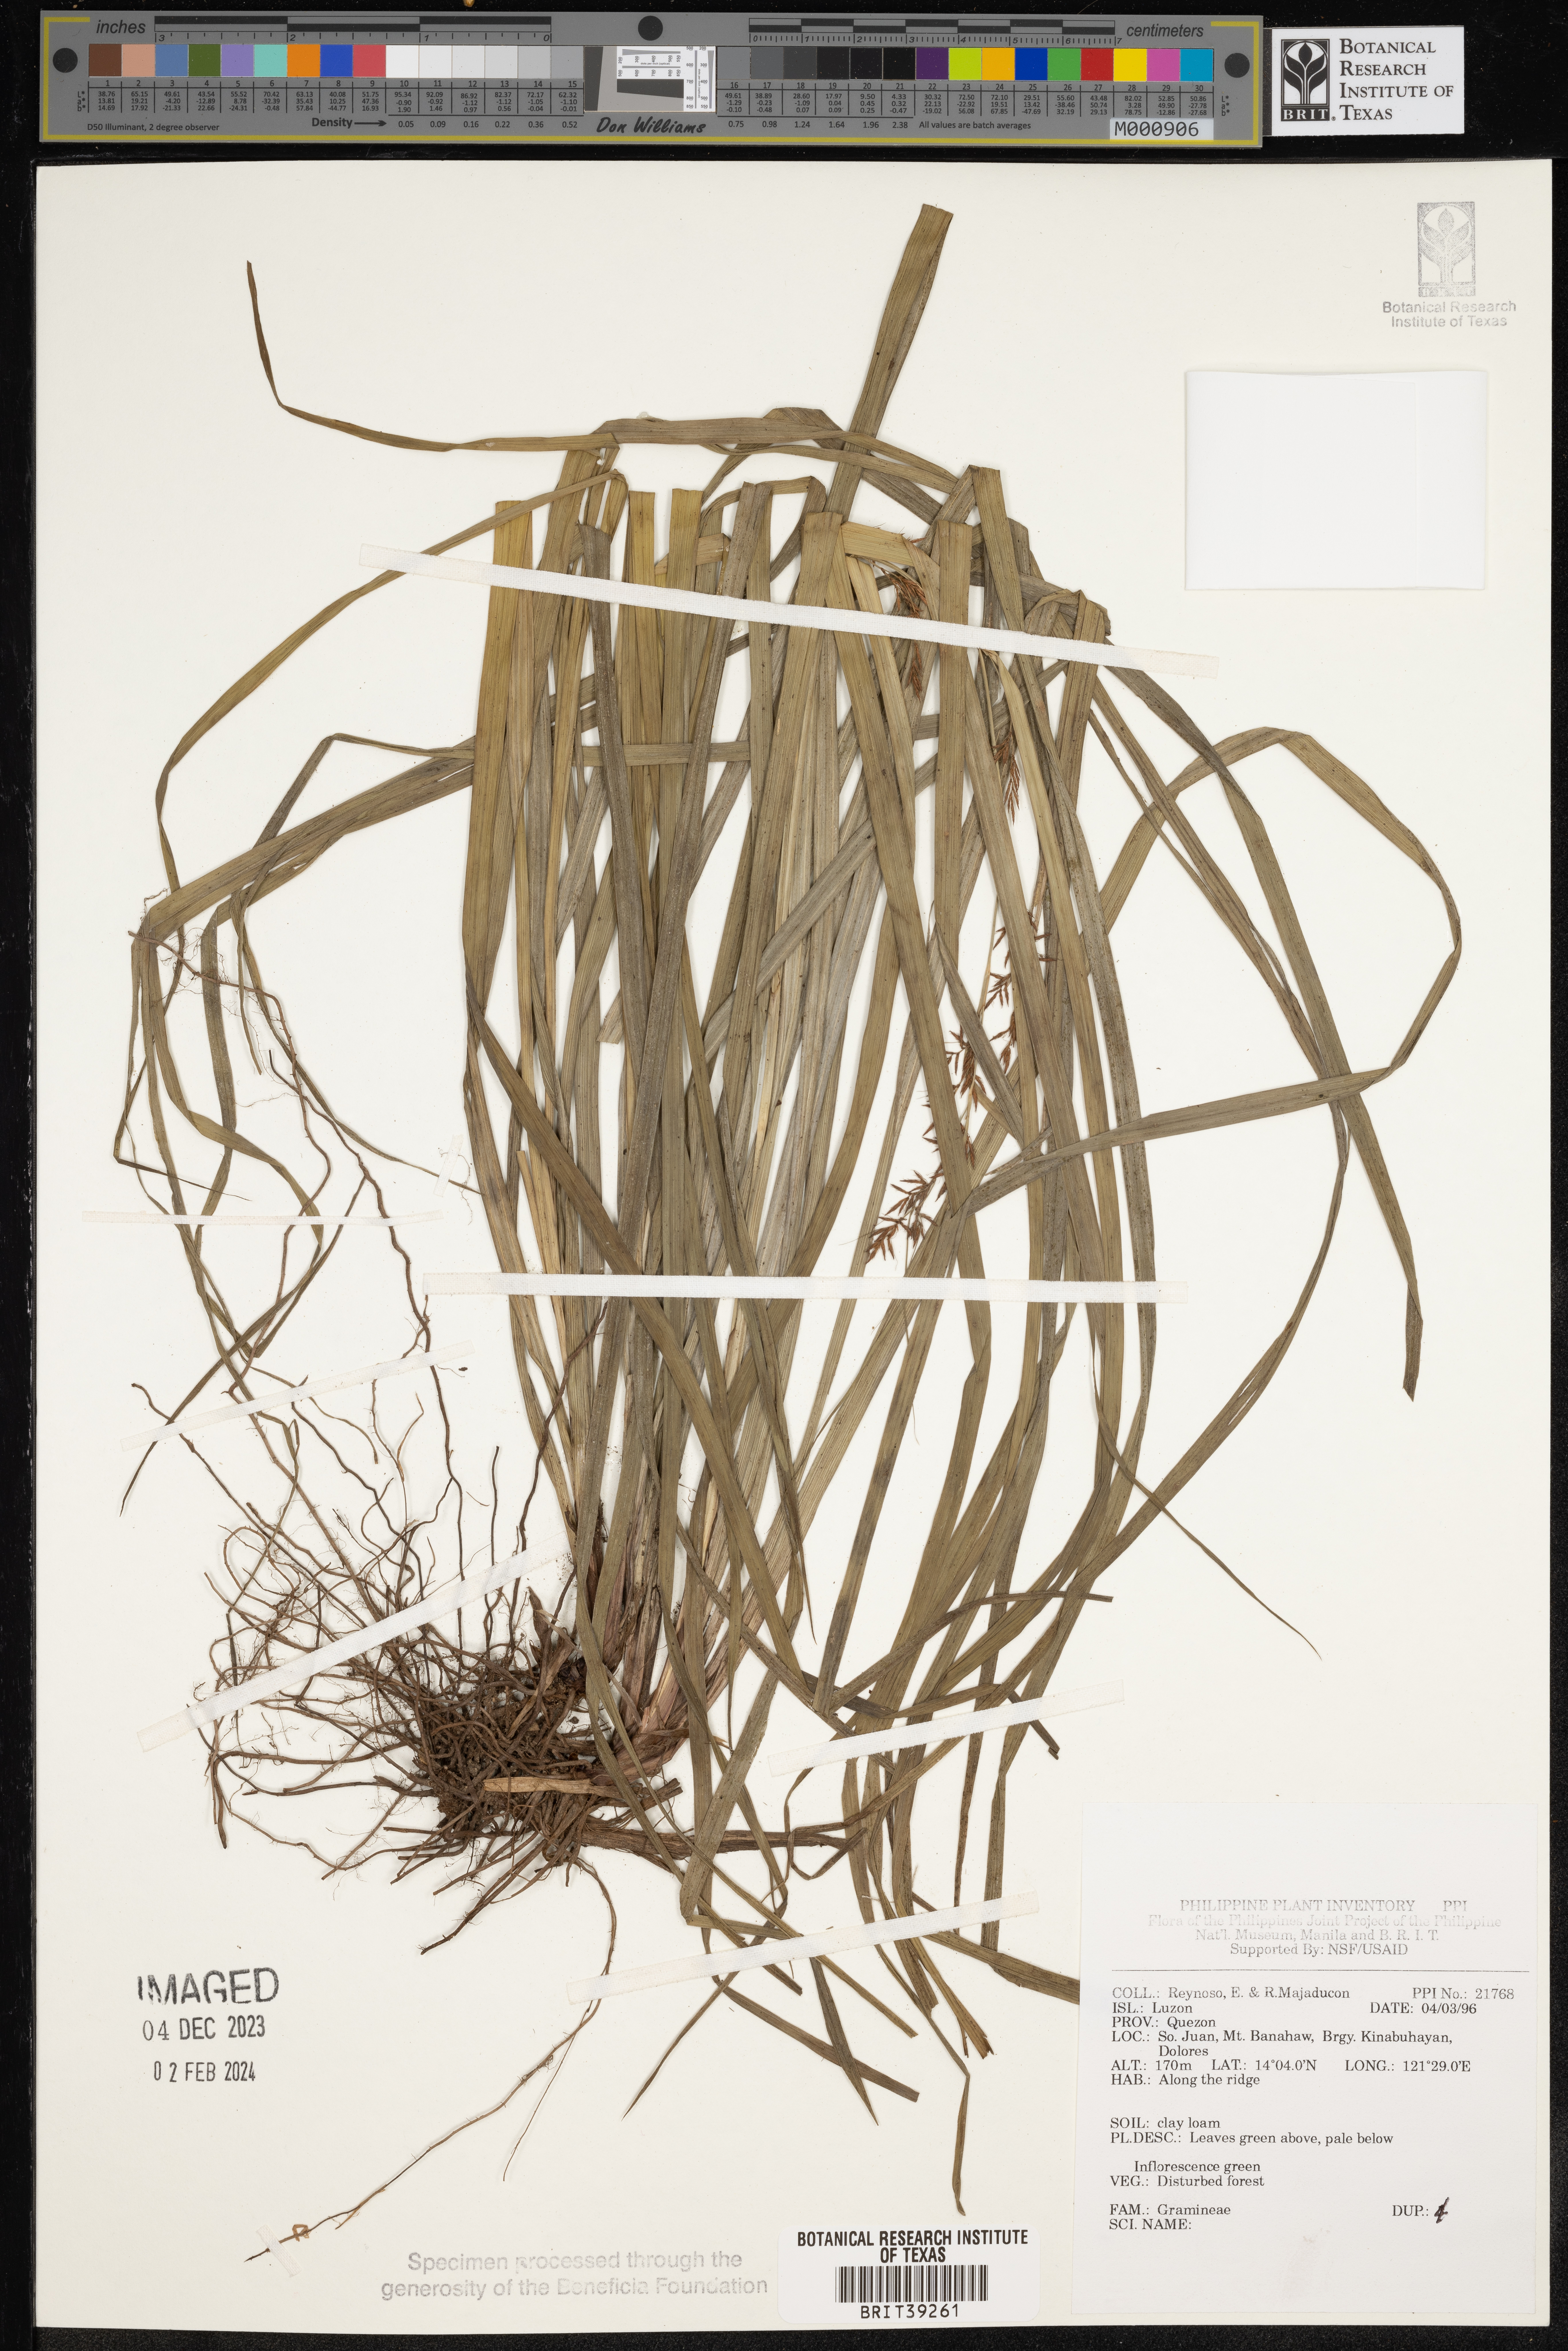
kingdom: Plantae
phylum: Tracheophyta
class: Liliopsida
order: Poales
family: Poaceae
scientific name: Poaceae
